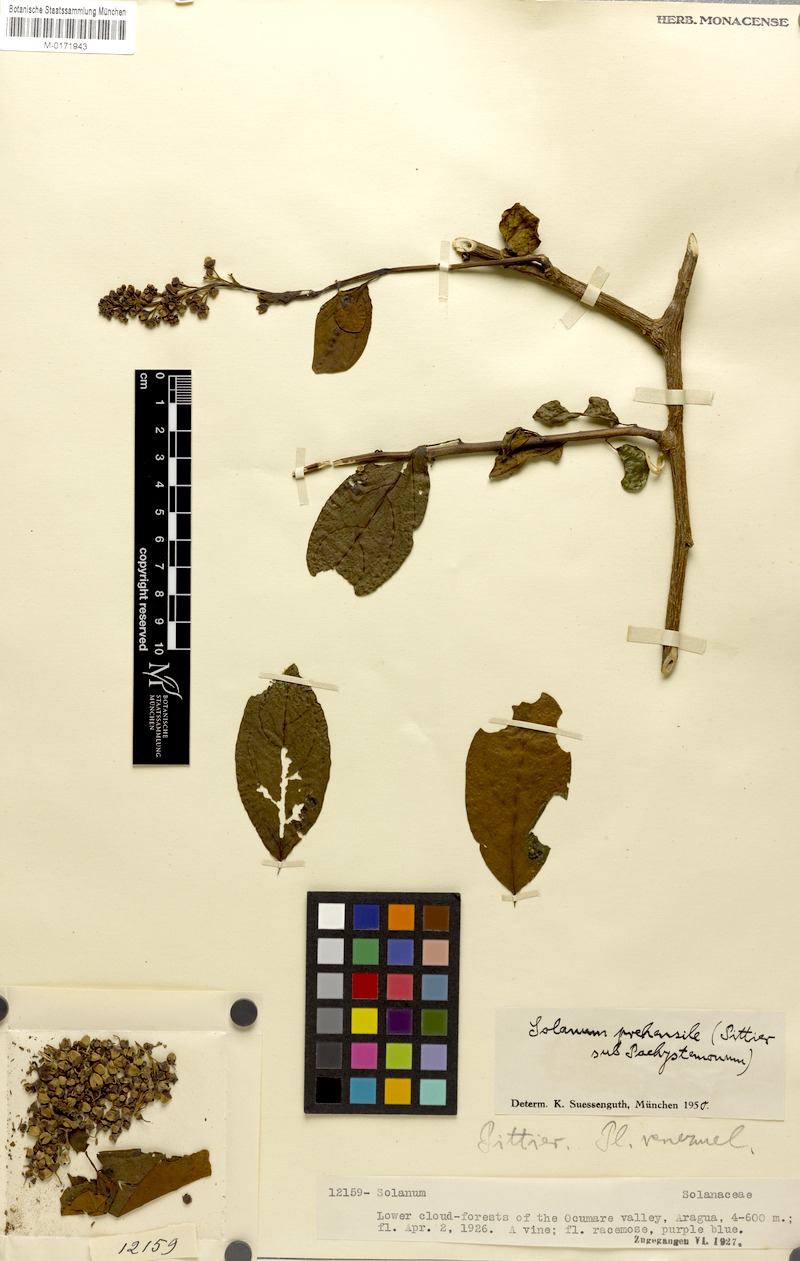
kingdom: Plantae
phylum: Tracheophyta
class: Magnoliopsida
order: Solanales
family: Solanaceae
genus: Solanum
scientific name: Solanum uncinellum
